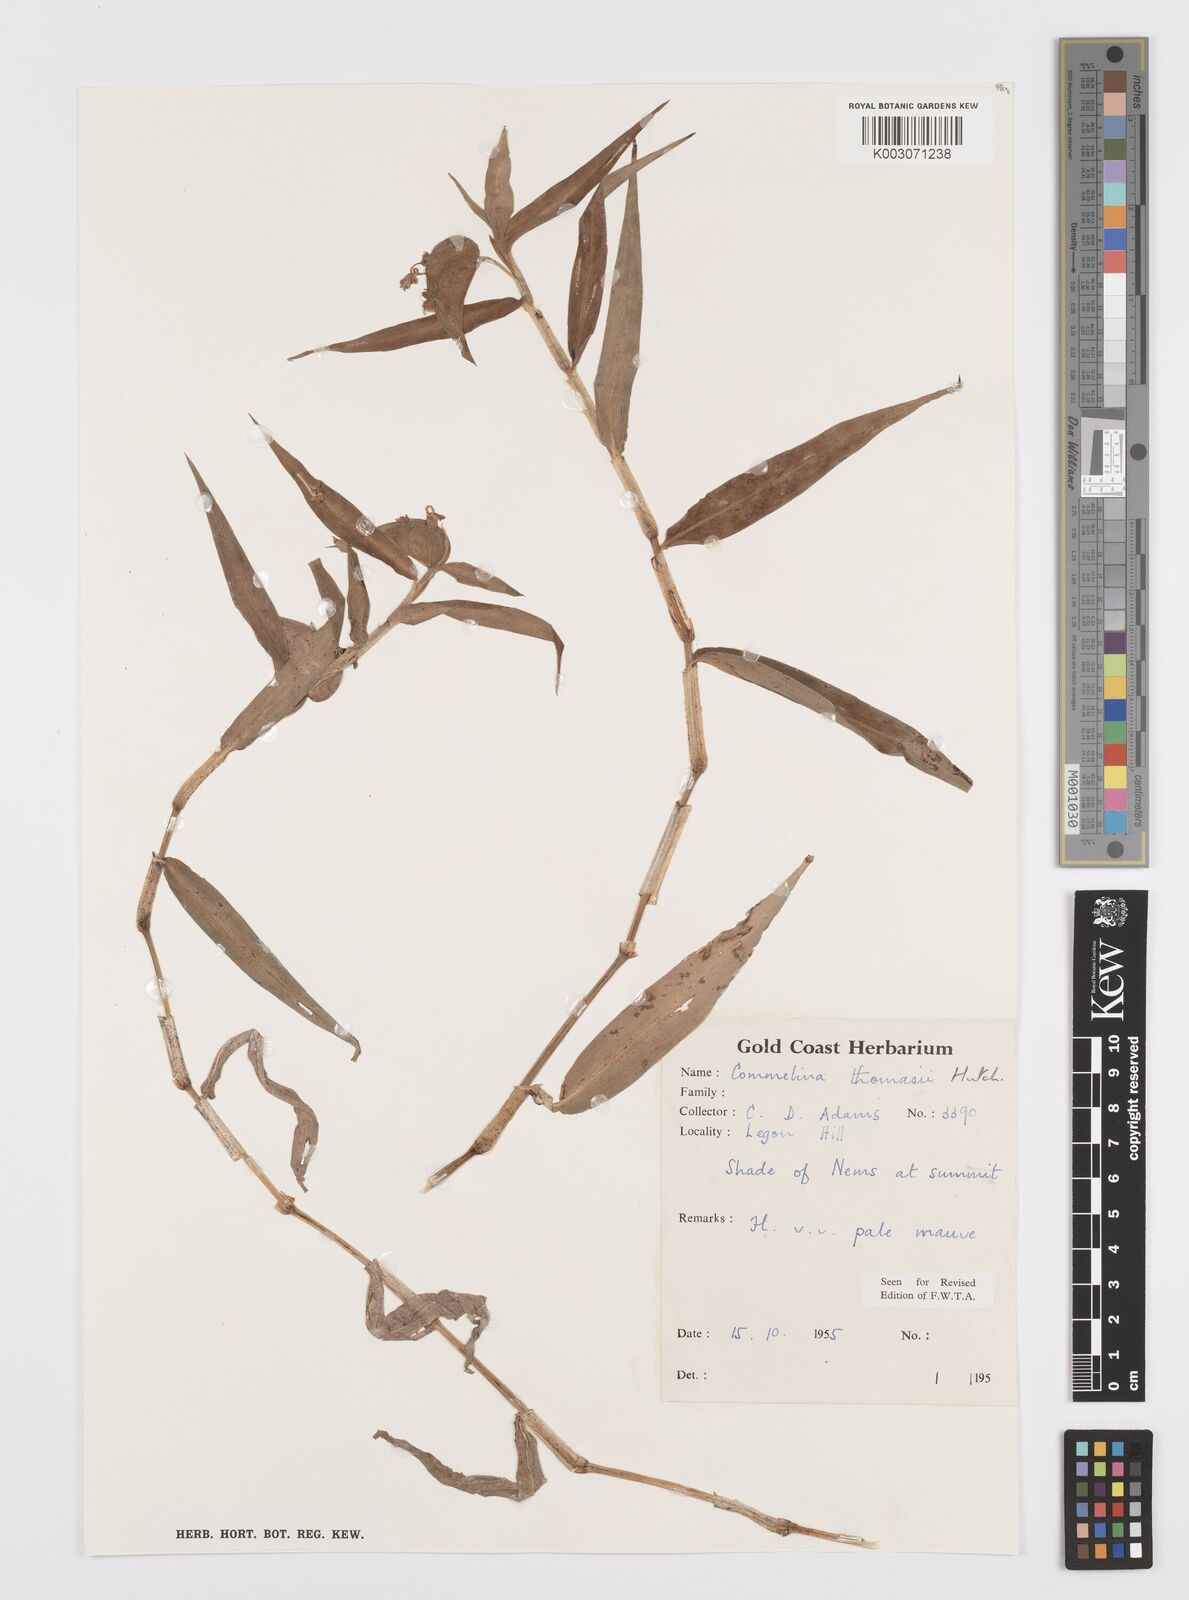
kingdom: Plantae
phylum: Tracheophyta
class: Liliopsida
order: Commelinales
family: Commelinaceae
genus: Commelina
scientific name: Commelina acutispatha
